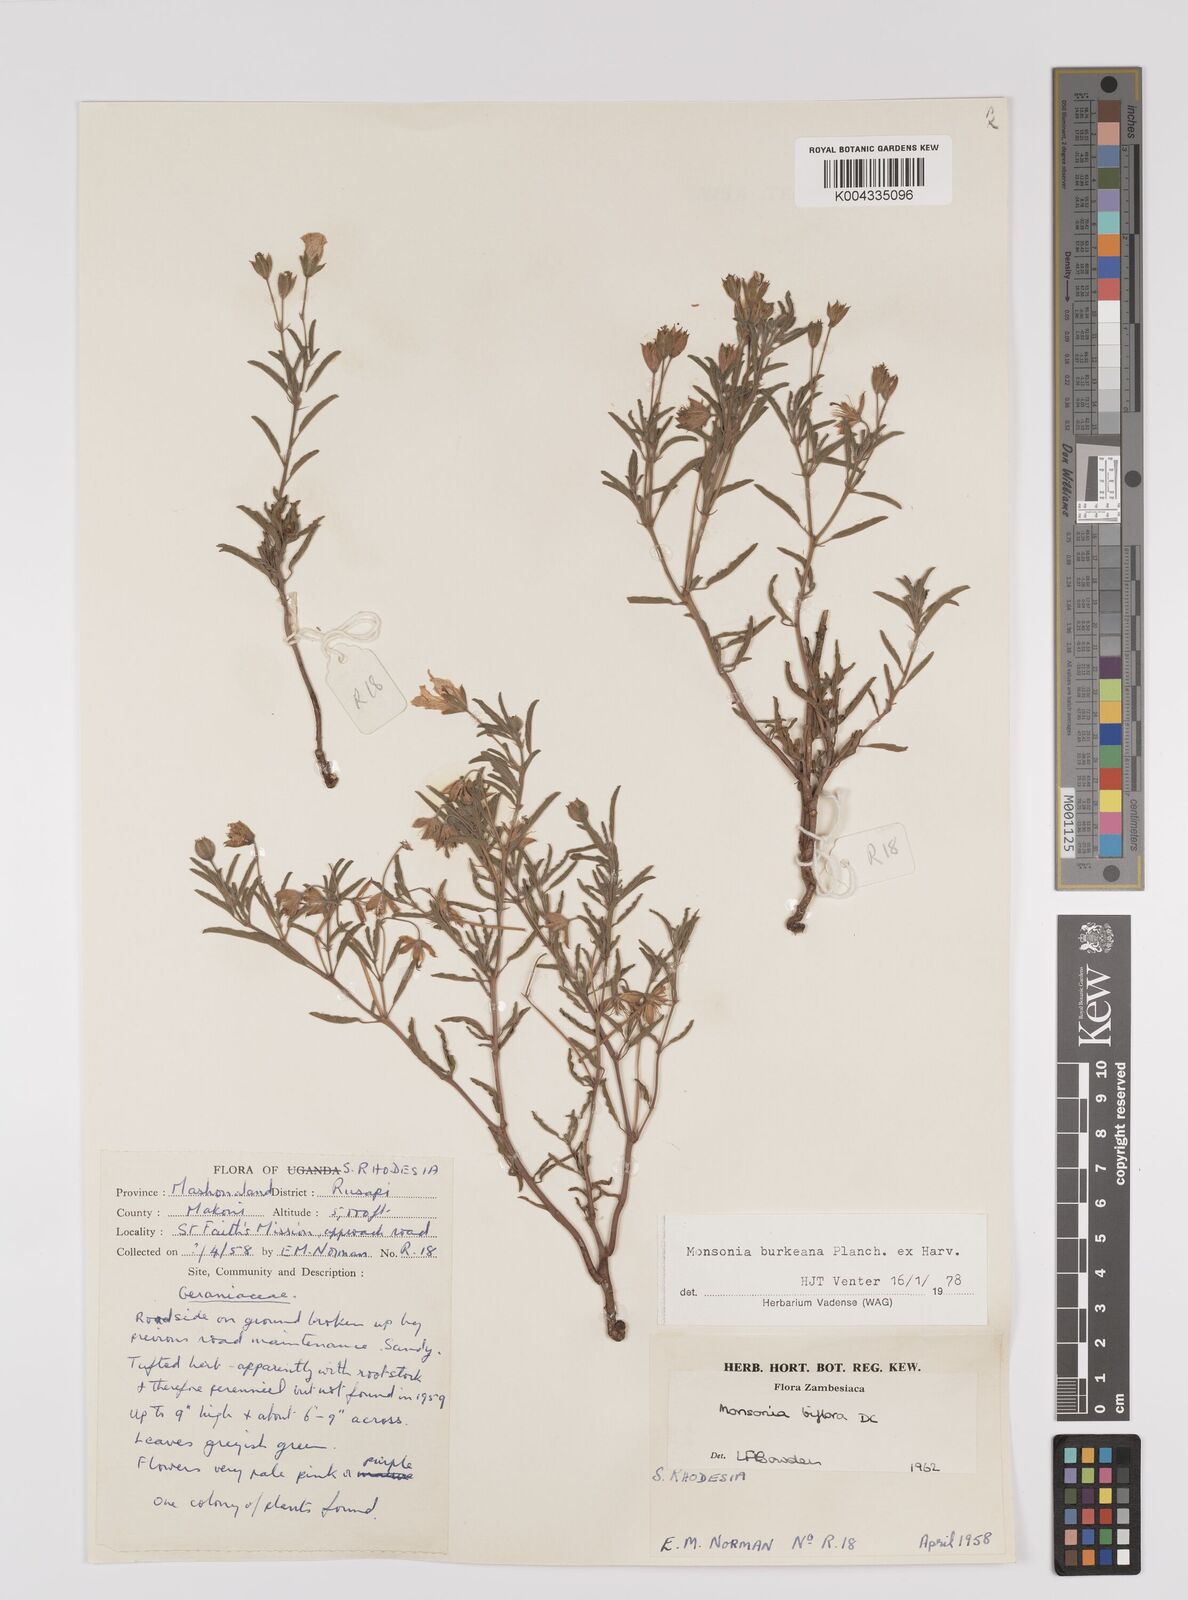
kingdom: Plantae
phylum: Tracheophyta
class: Magnoliopsida
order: Geraniales
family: Geraniaceae
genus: Monsonia
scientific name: Monsonia biflora
